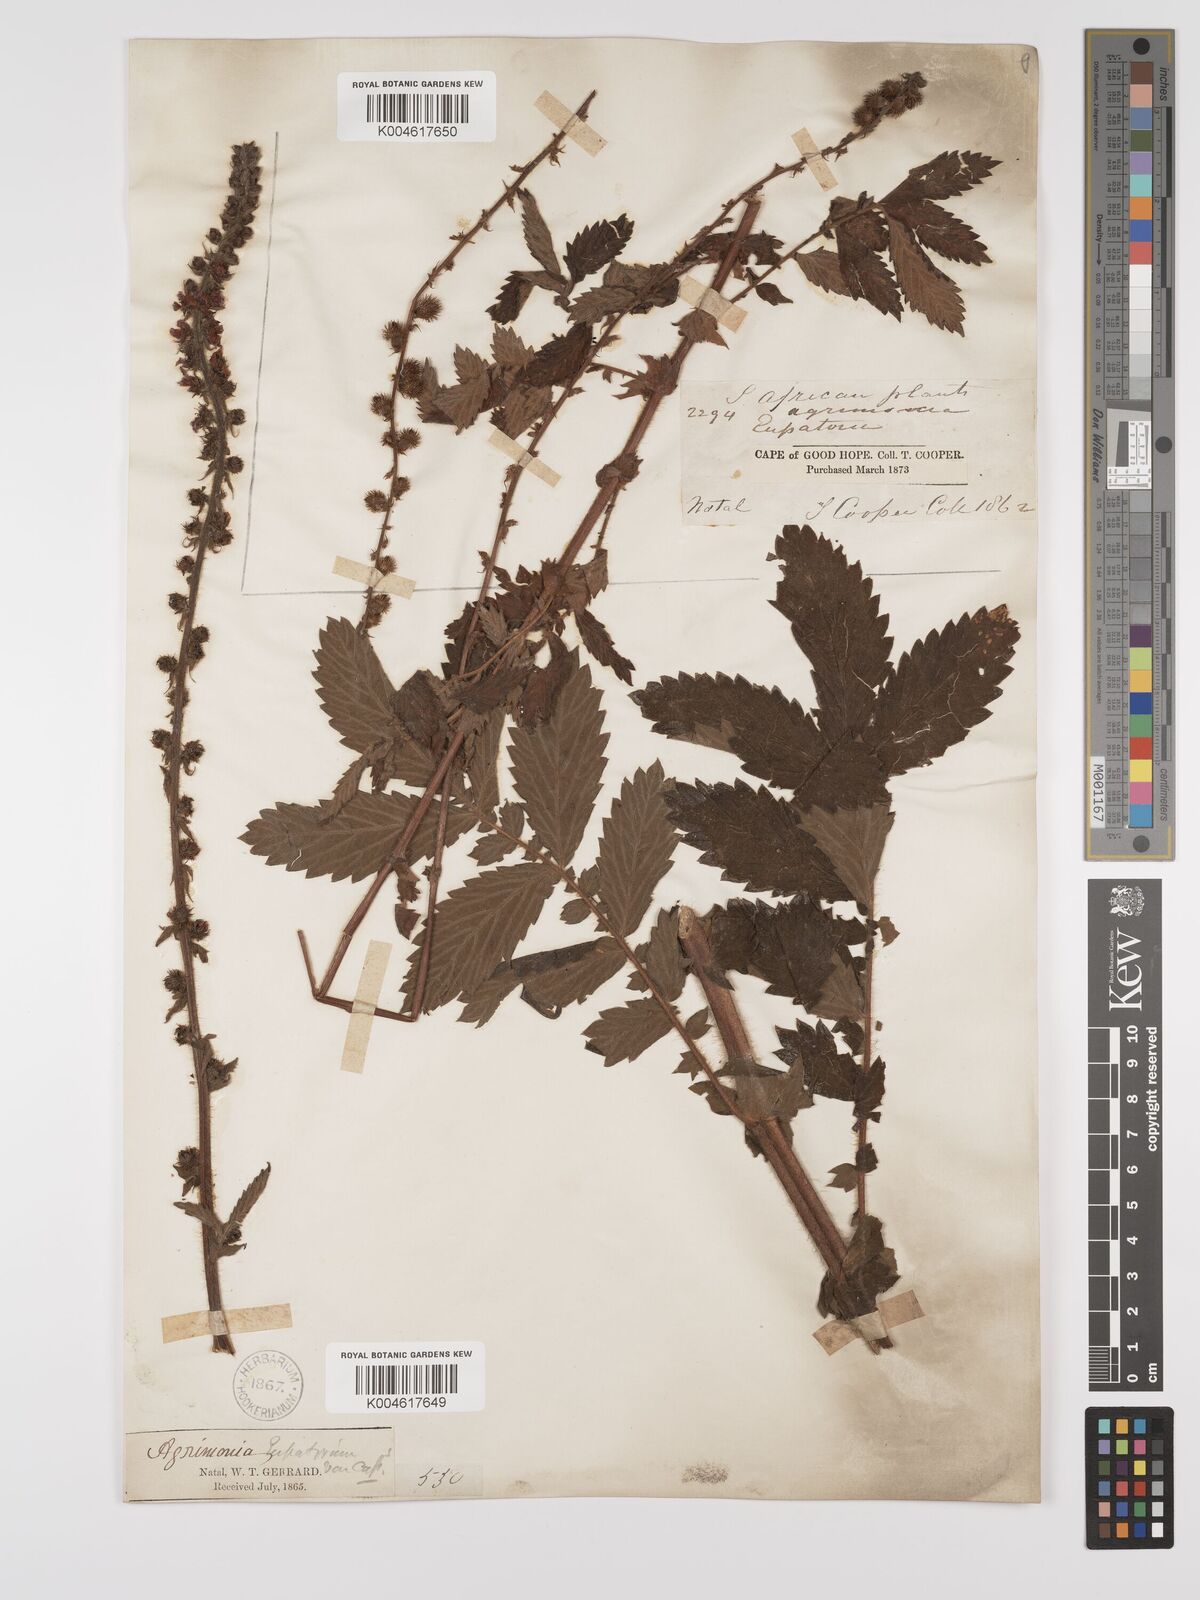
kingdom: Plantae
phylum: Tracheophyta
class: Magnoliopsida
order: Rosales
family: Rosaceae
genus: Agrimonia
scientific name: Agrimonia eupatoria
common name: Agrimony
